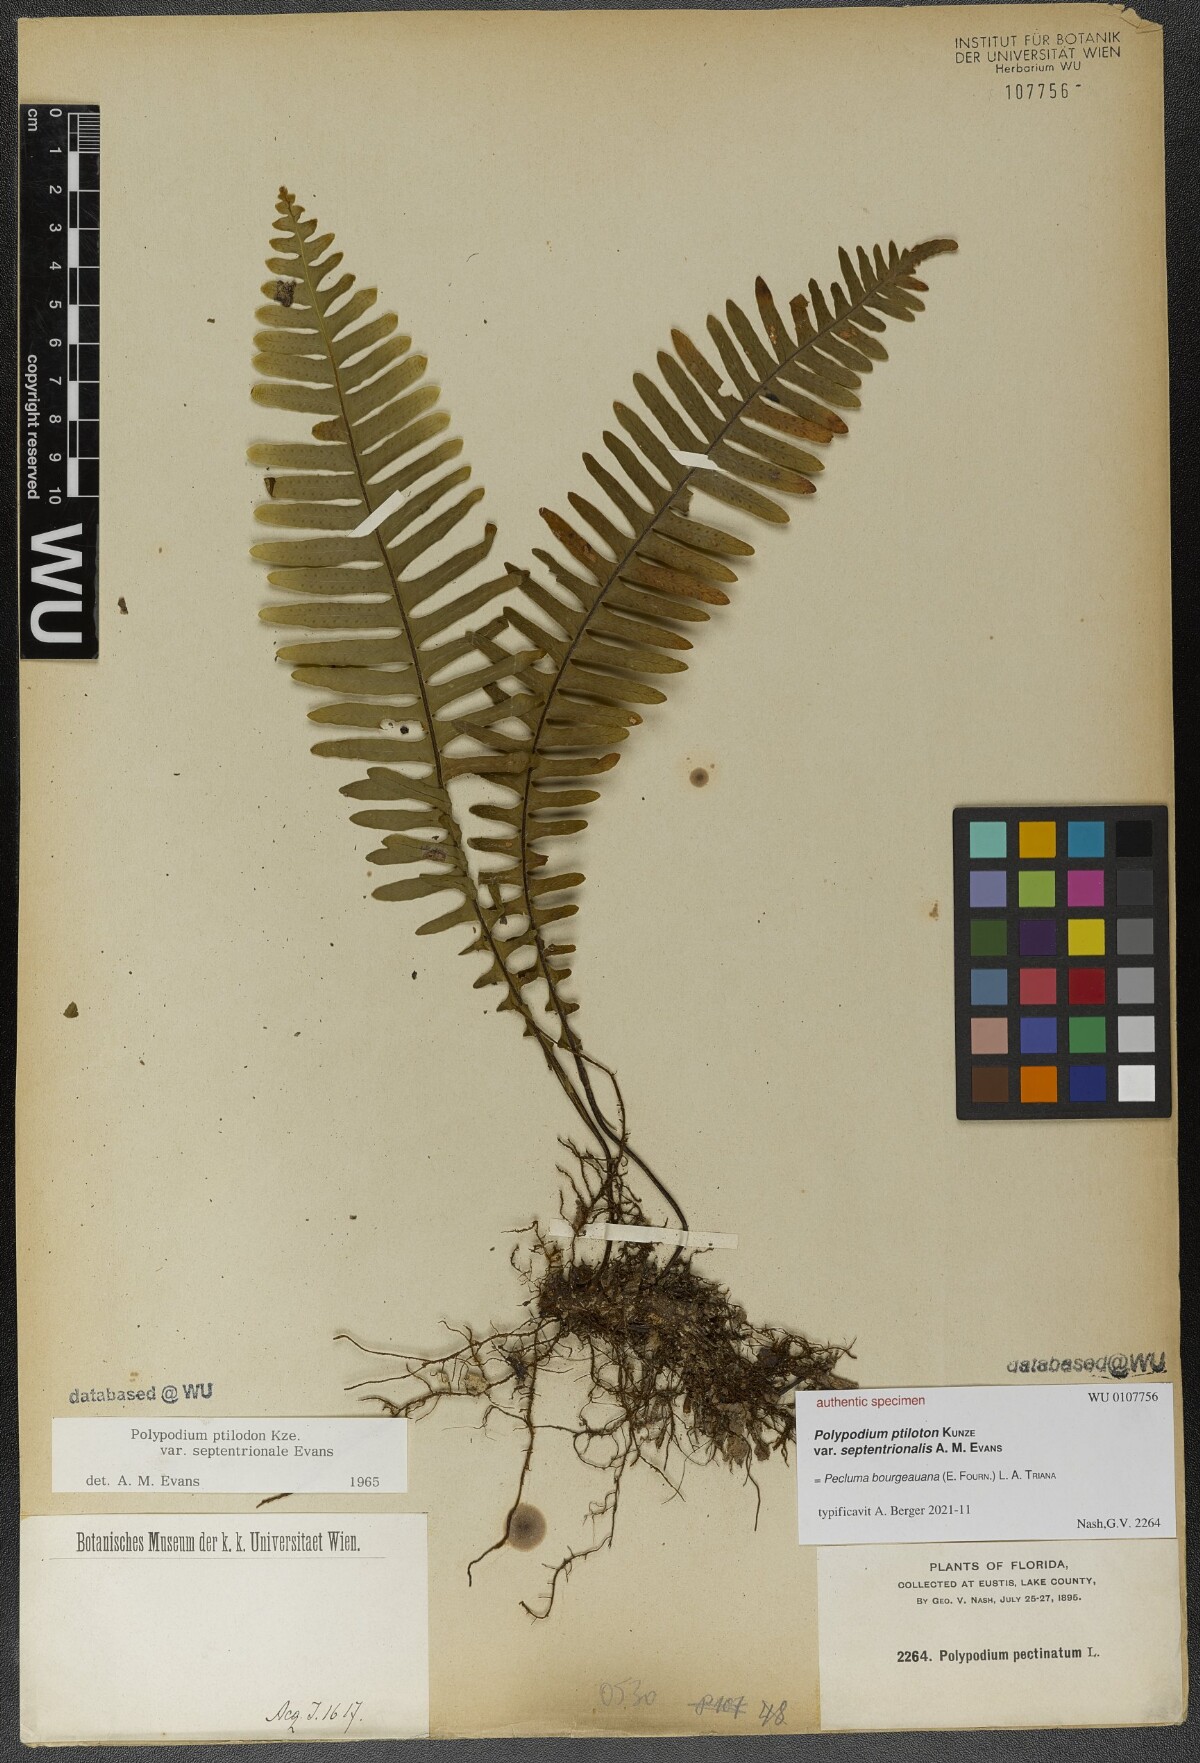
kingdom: Plantae
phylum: Tracheophyta
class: Polypodiopsida
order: Polypodiales
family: Polypodiaceae
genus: Pecluma
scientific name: Pecluma bourgeauana
